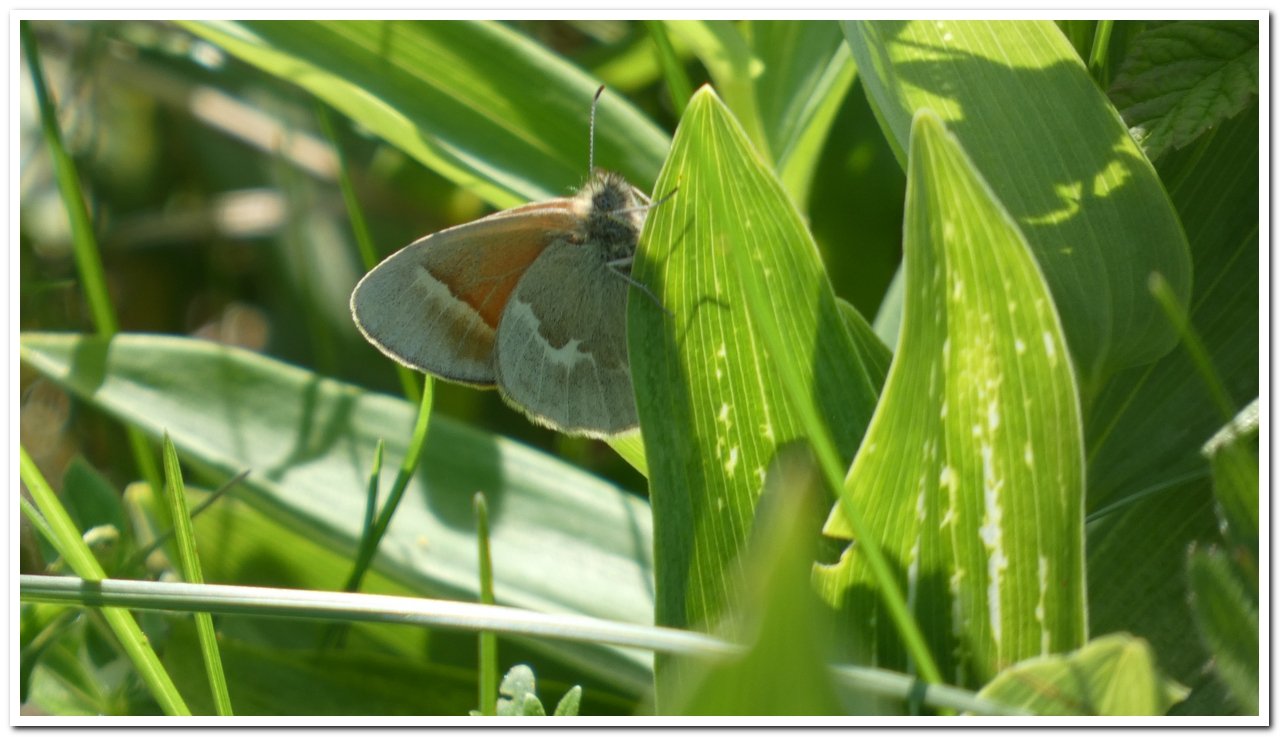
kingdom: Animalia
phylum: Arthropoda
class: Insecta
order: Lepidoptera
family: Nymphalidae
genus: Coenonympha
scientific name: Coenonympha tullia
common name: Large Heath
